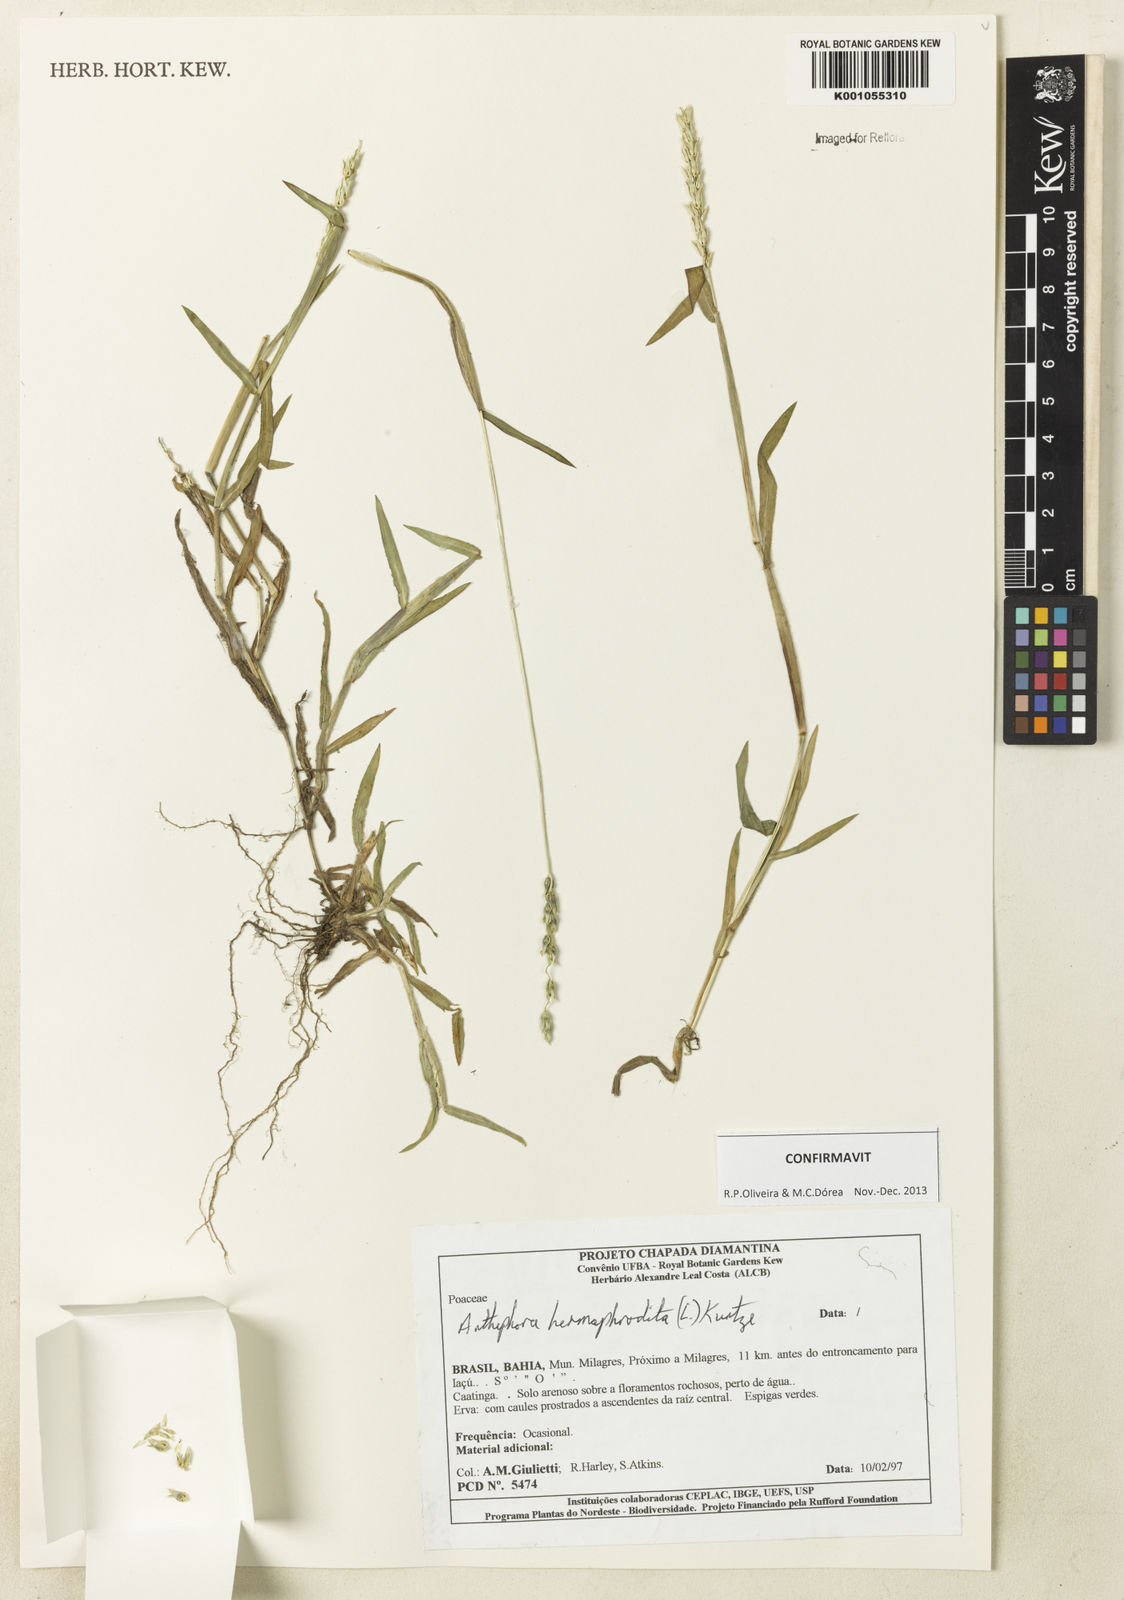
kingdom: Plantae
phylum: Tracheophyta
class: Liliopsida
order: Poales
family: Poaceae
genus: Anthephora
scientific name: Anthephora hermaphrodita
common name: Oldfield grass
